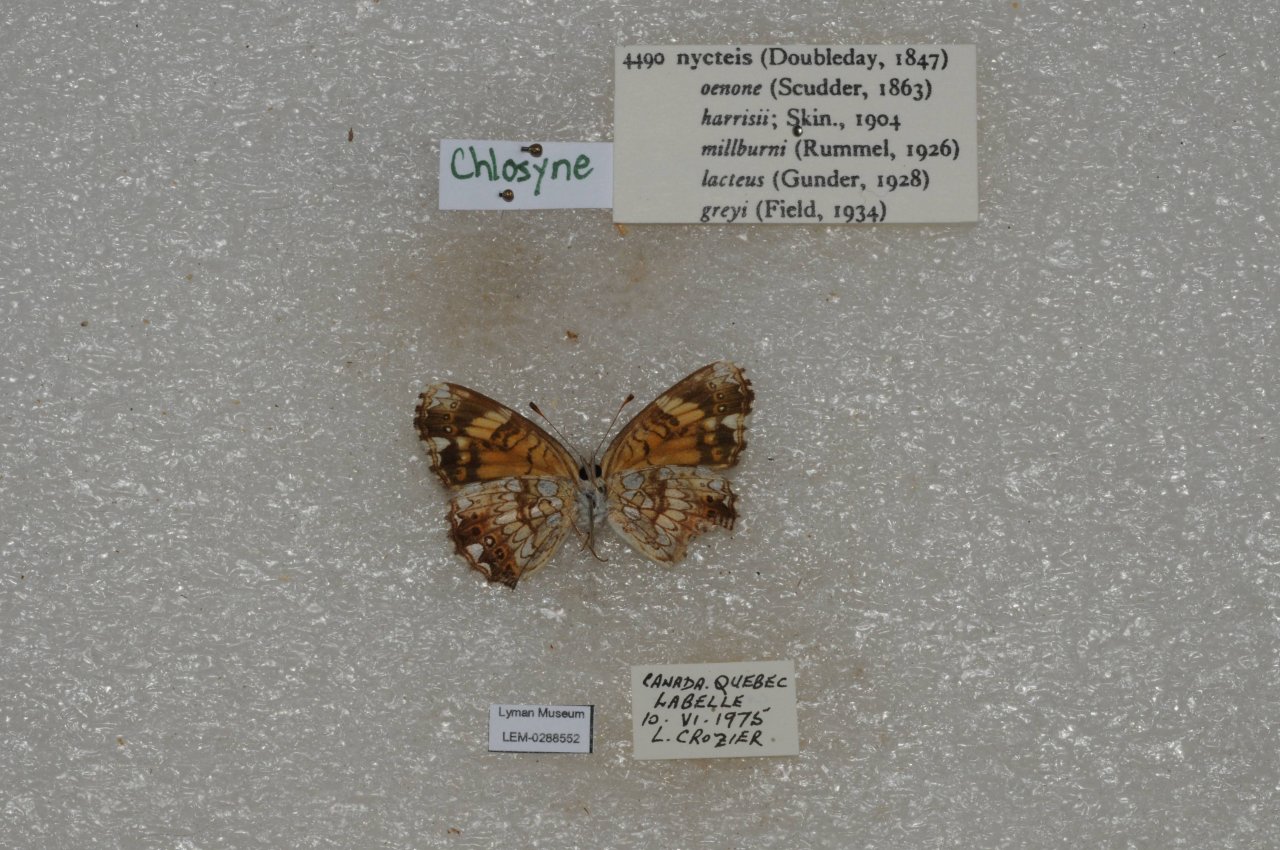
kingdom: Animalia
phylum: Arthropoda
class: Insecta
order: Lepidoptera
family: Nymphalidae
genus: Chlosyne
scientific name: Chlosyne nycteis
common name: Silvery Checkerspot
